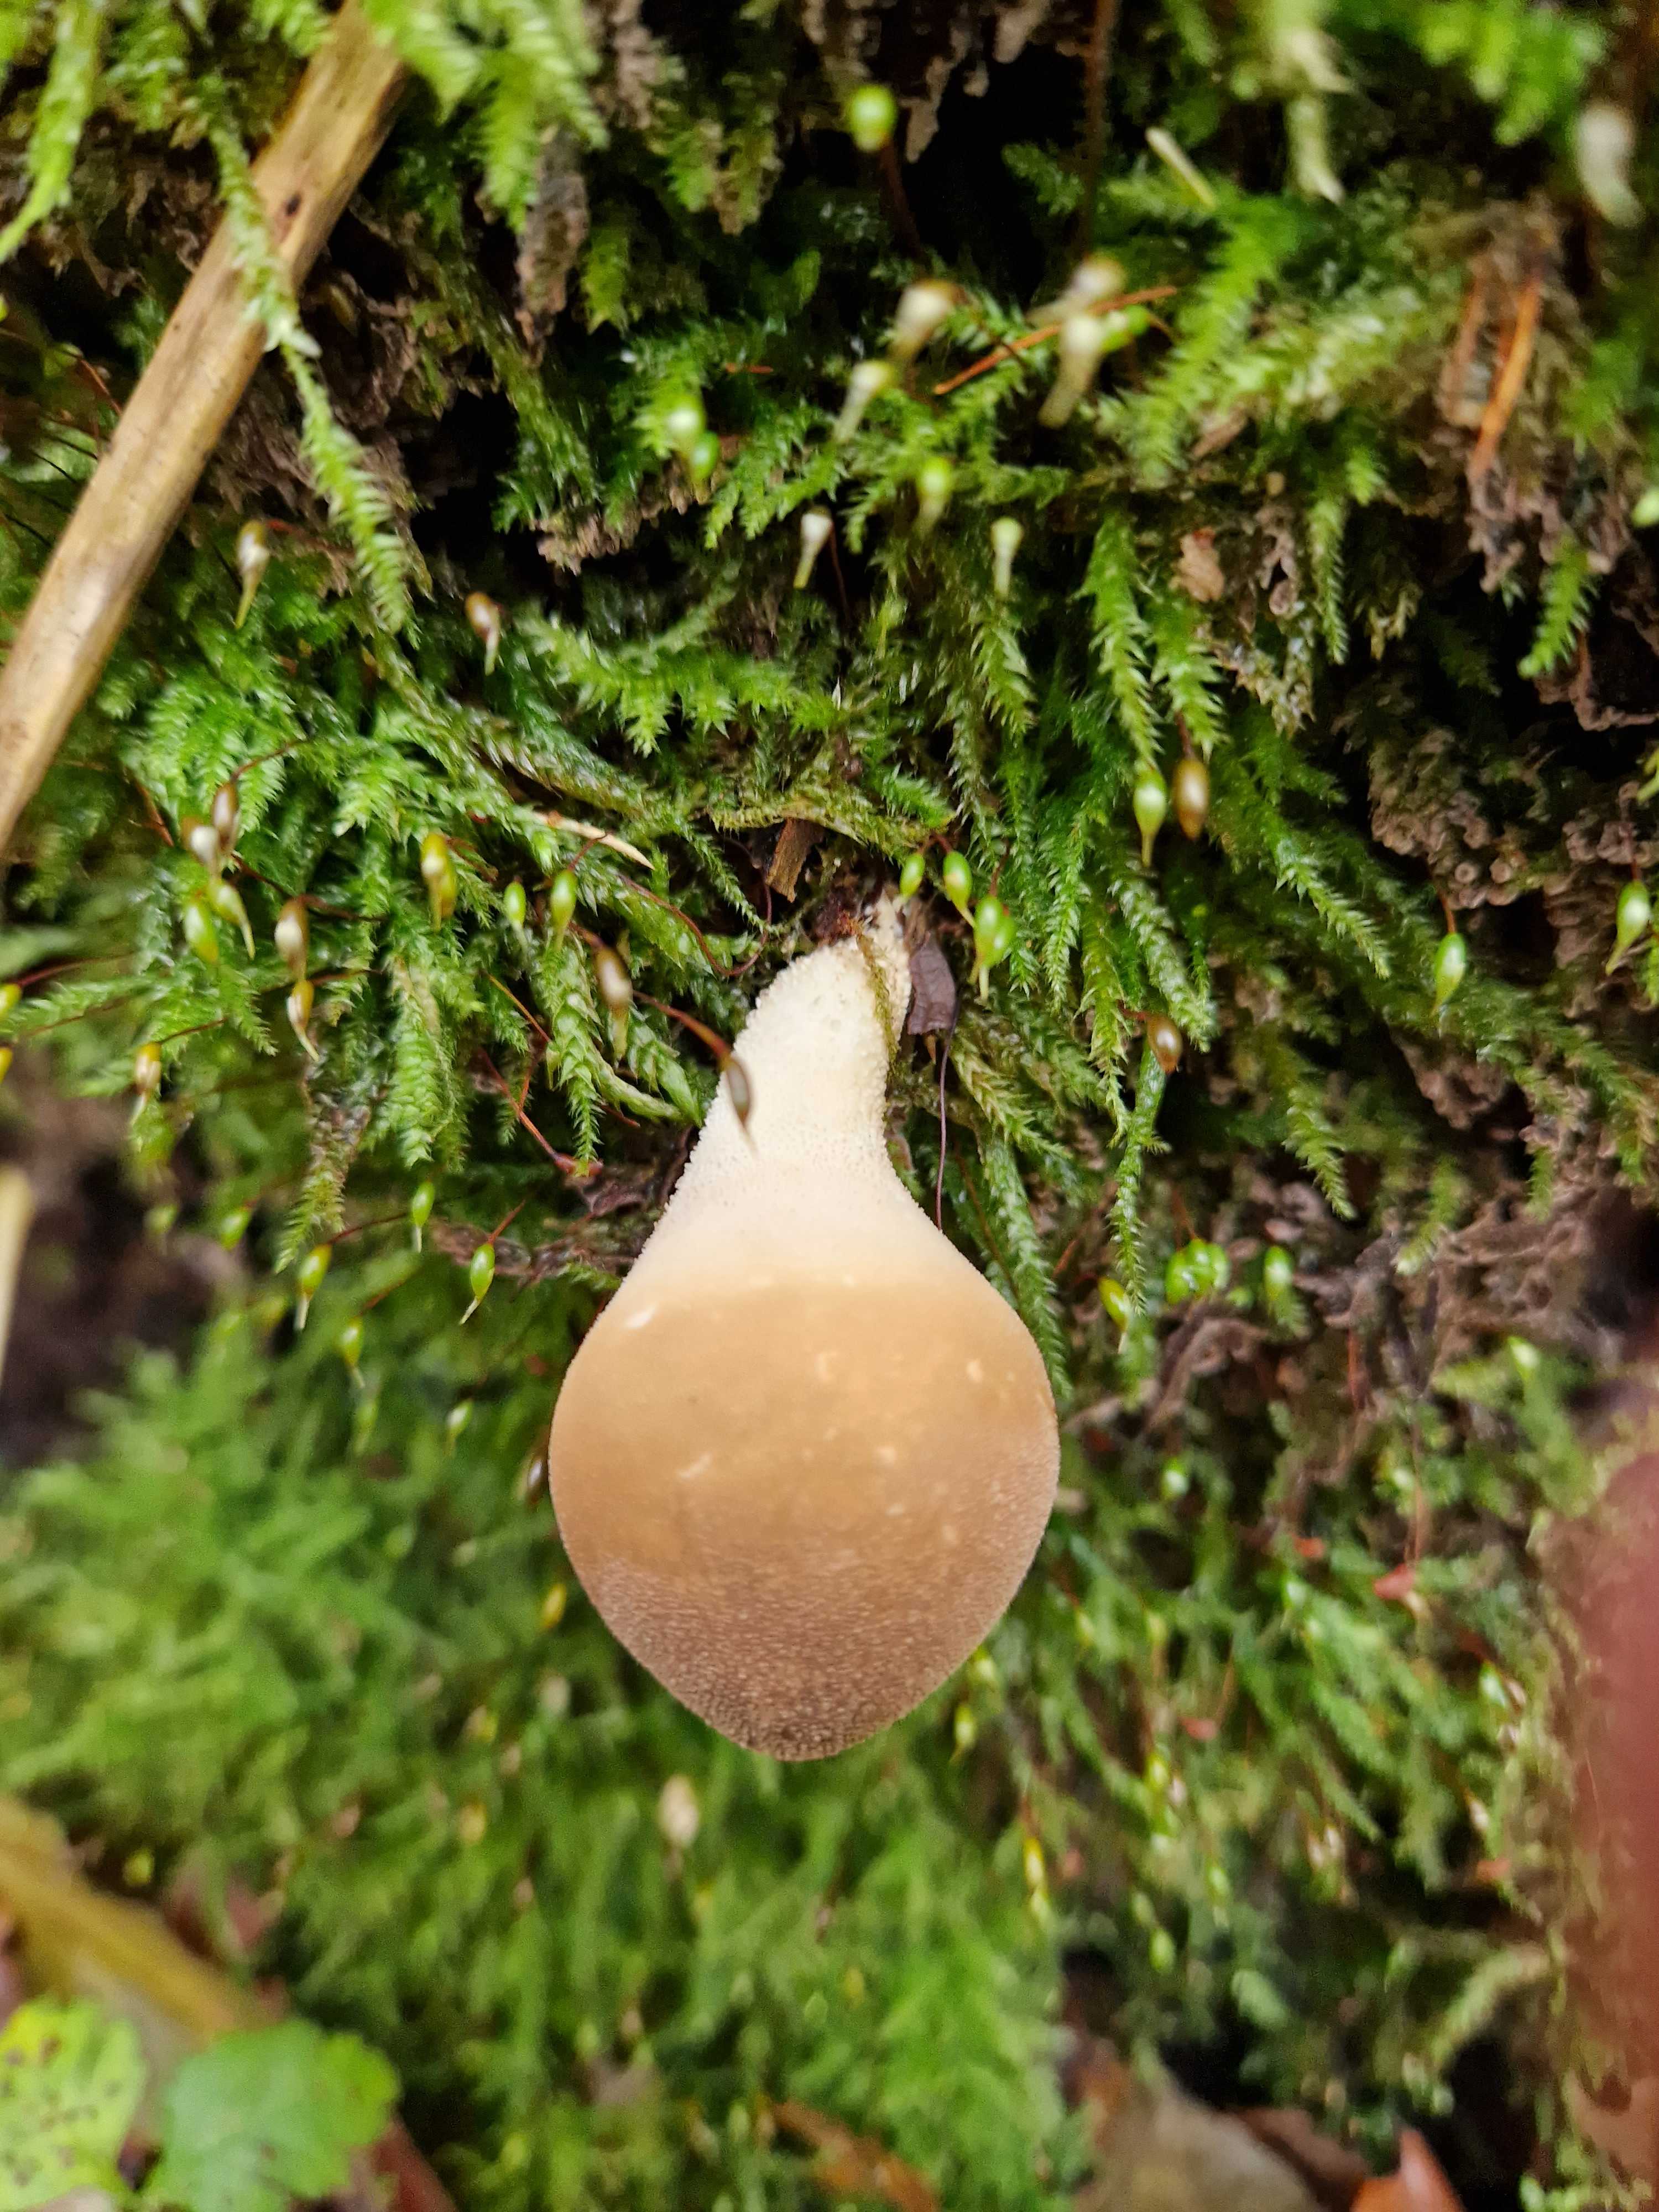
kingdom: Fungi
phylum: Basidiomycota
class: Agaricomycetes
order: Agaricales
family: Lycoperdaceae
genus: Apioperdon
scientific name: Apioperdon pyriforme
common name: pære-støvbold
